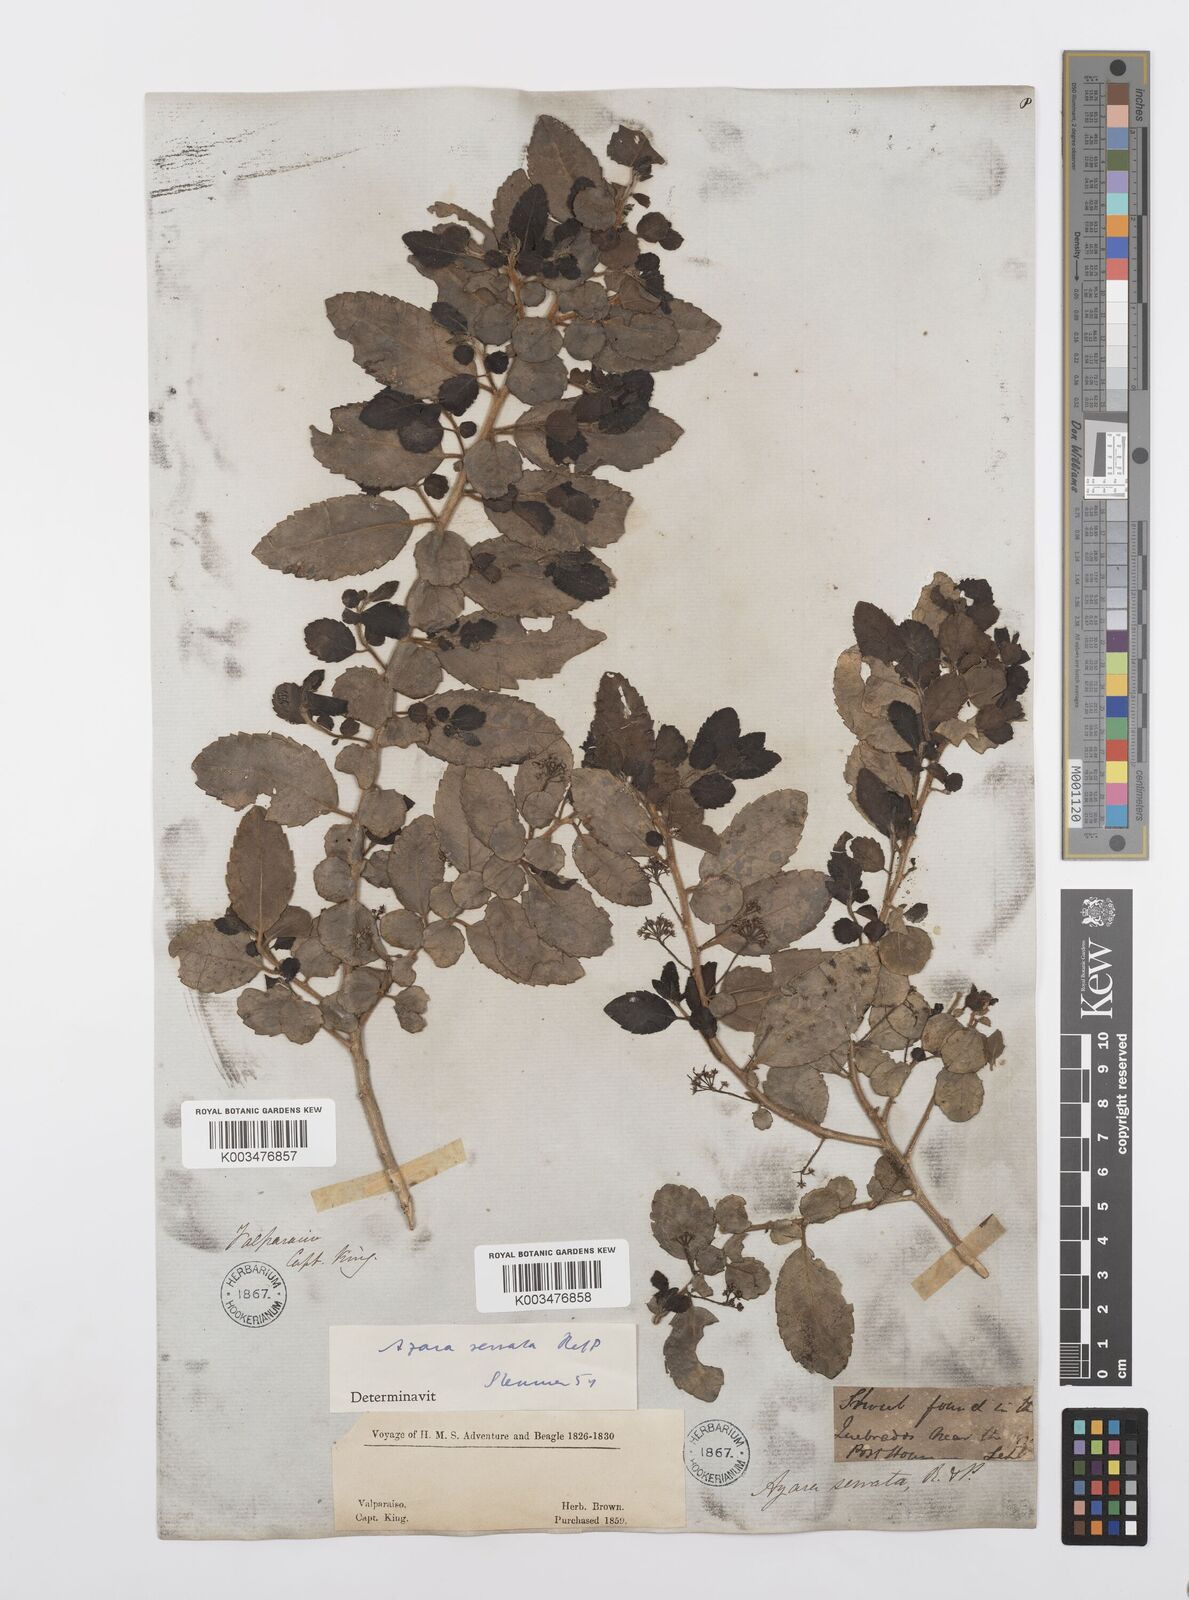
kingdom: Plantae
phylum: Tracheophyta
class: Magnoliopsida
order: Malpighiales
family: Salicaceae
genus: Azara
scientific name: Azara serrata
